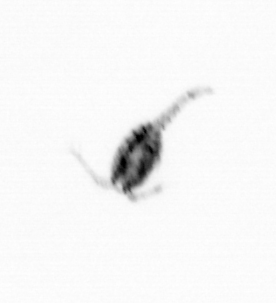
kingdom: Animalia
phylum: Arthropoda
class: Copepoda
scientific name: Copepoda
